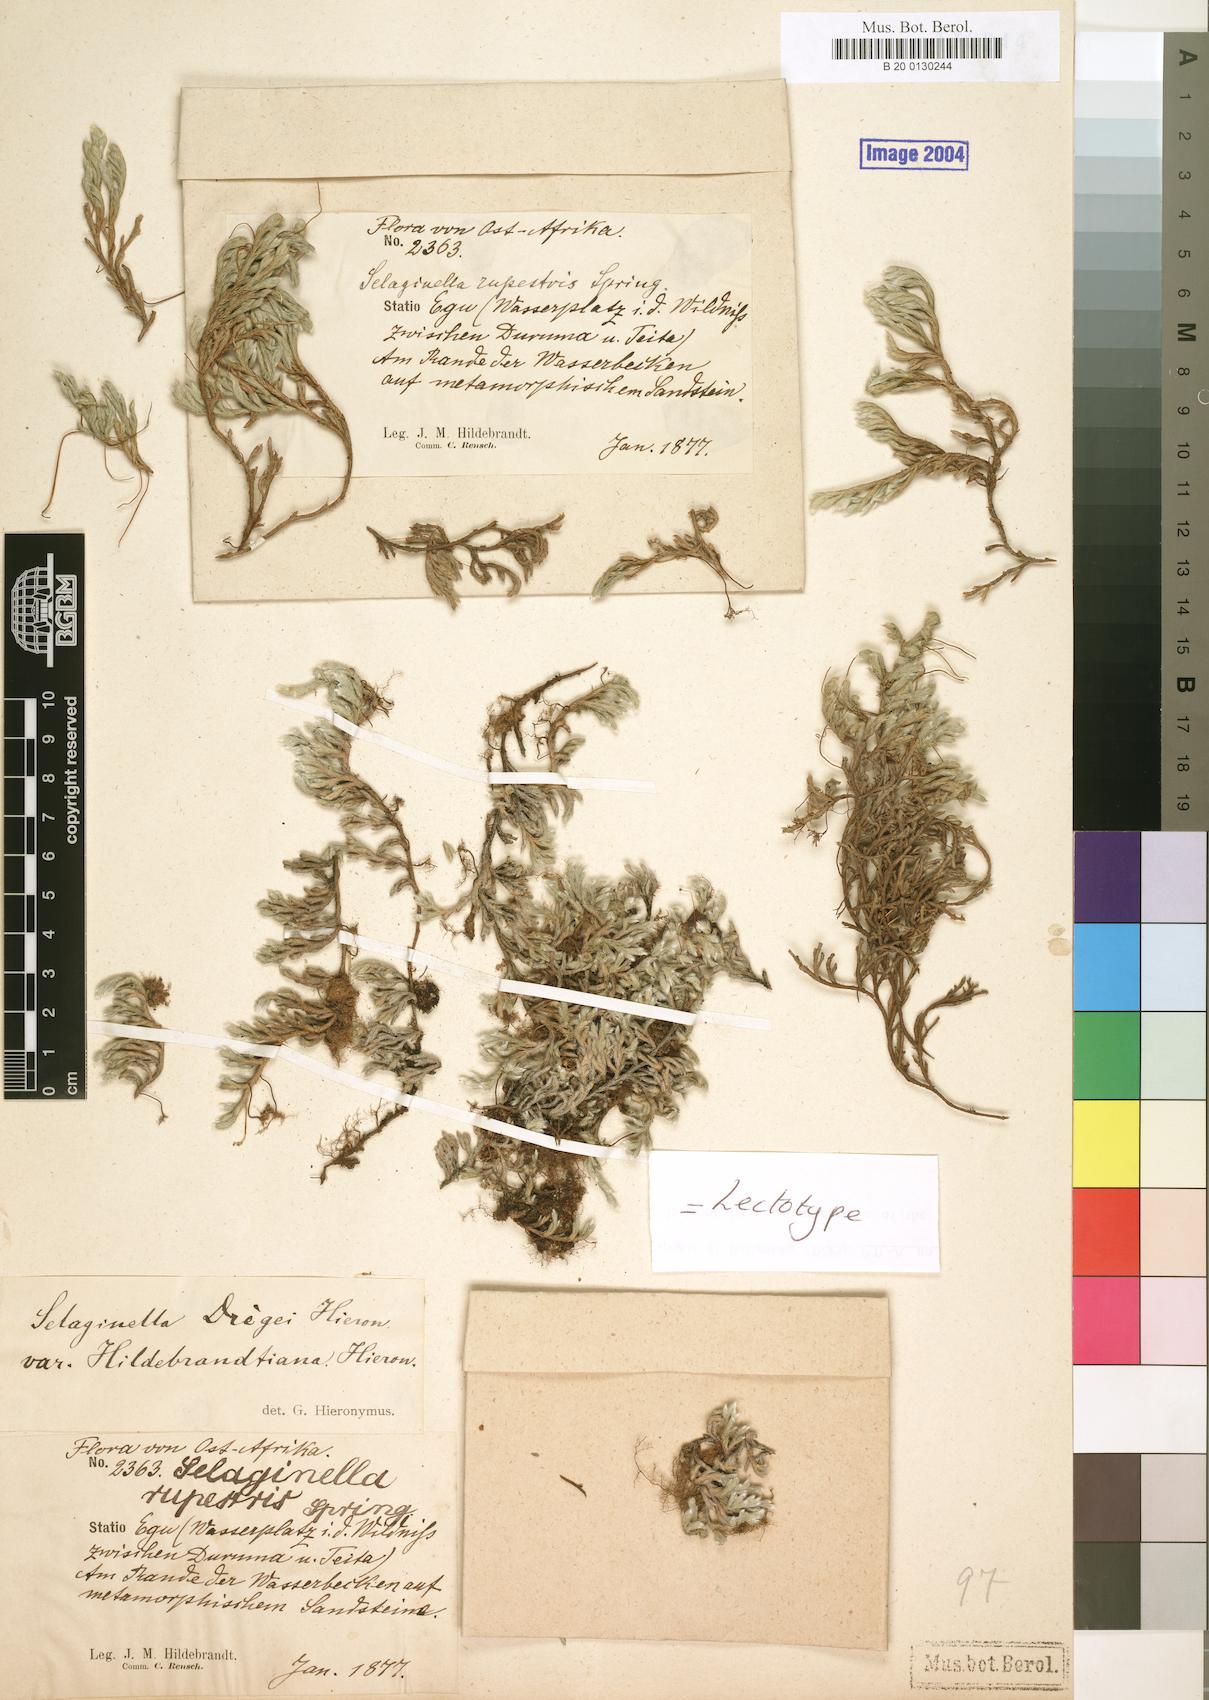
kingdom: Plantae
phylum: Tracheophyta
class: Lycopodiopsida
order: Selaginellales
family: Selaginellaceae
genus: Selaginella
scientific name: Selaginella dregei
